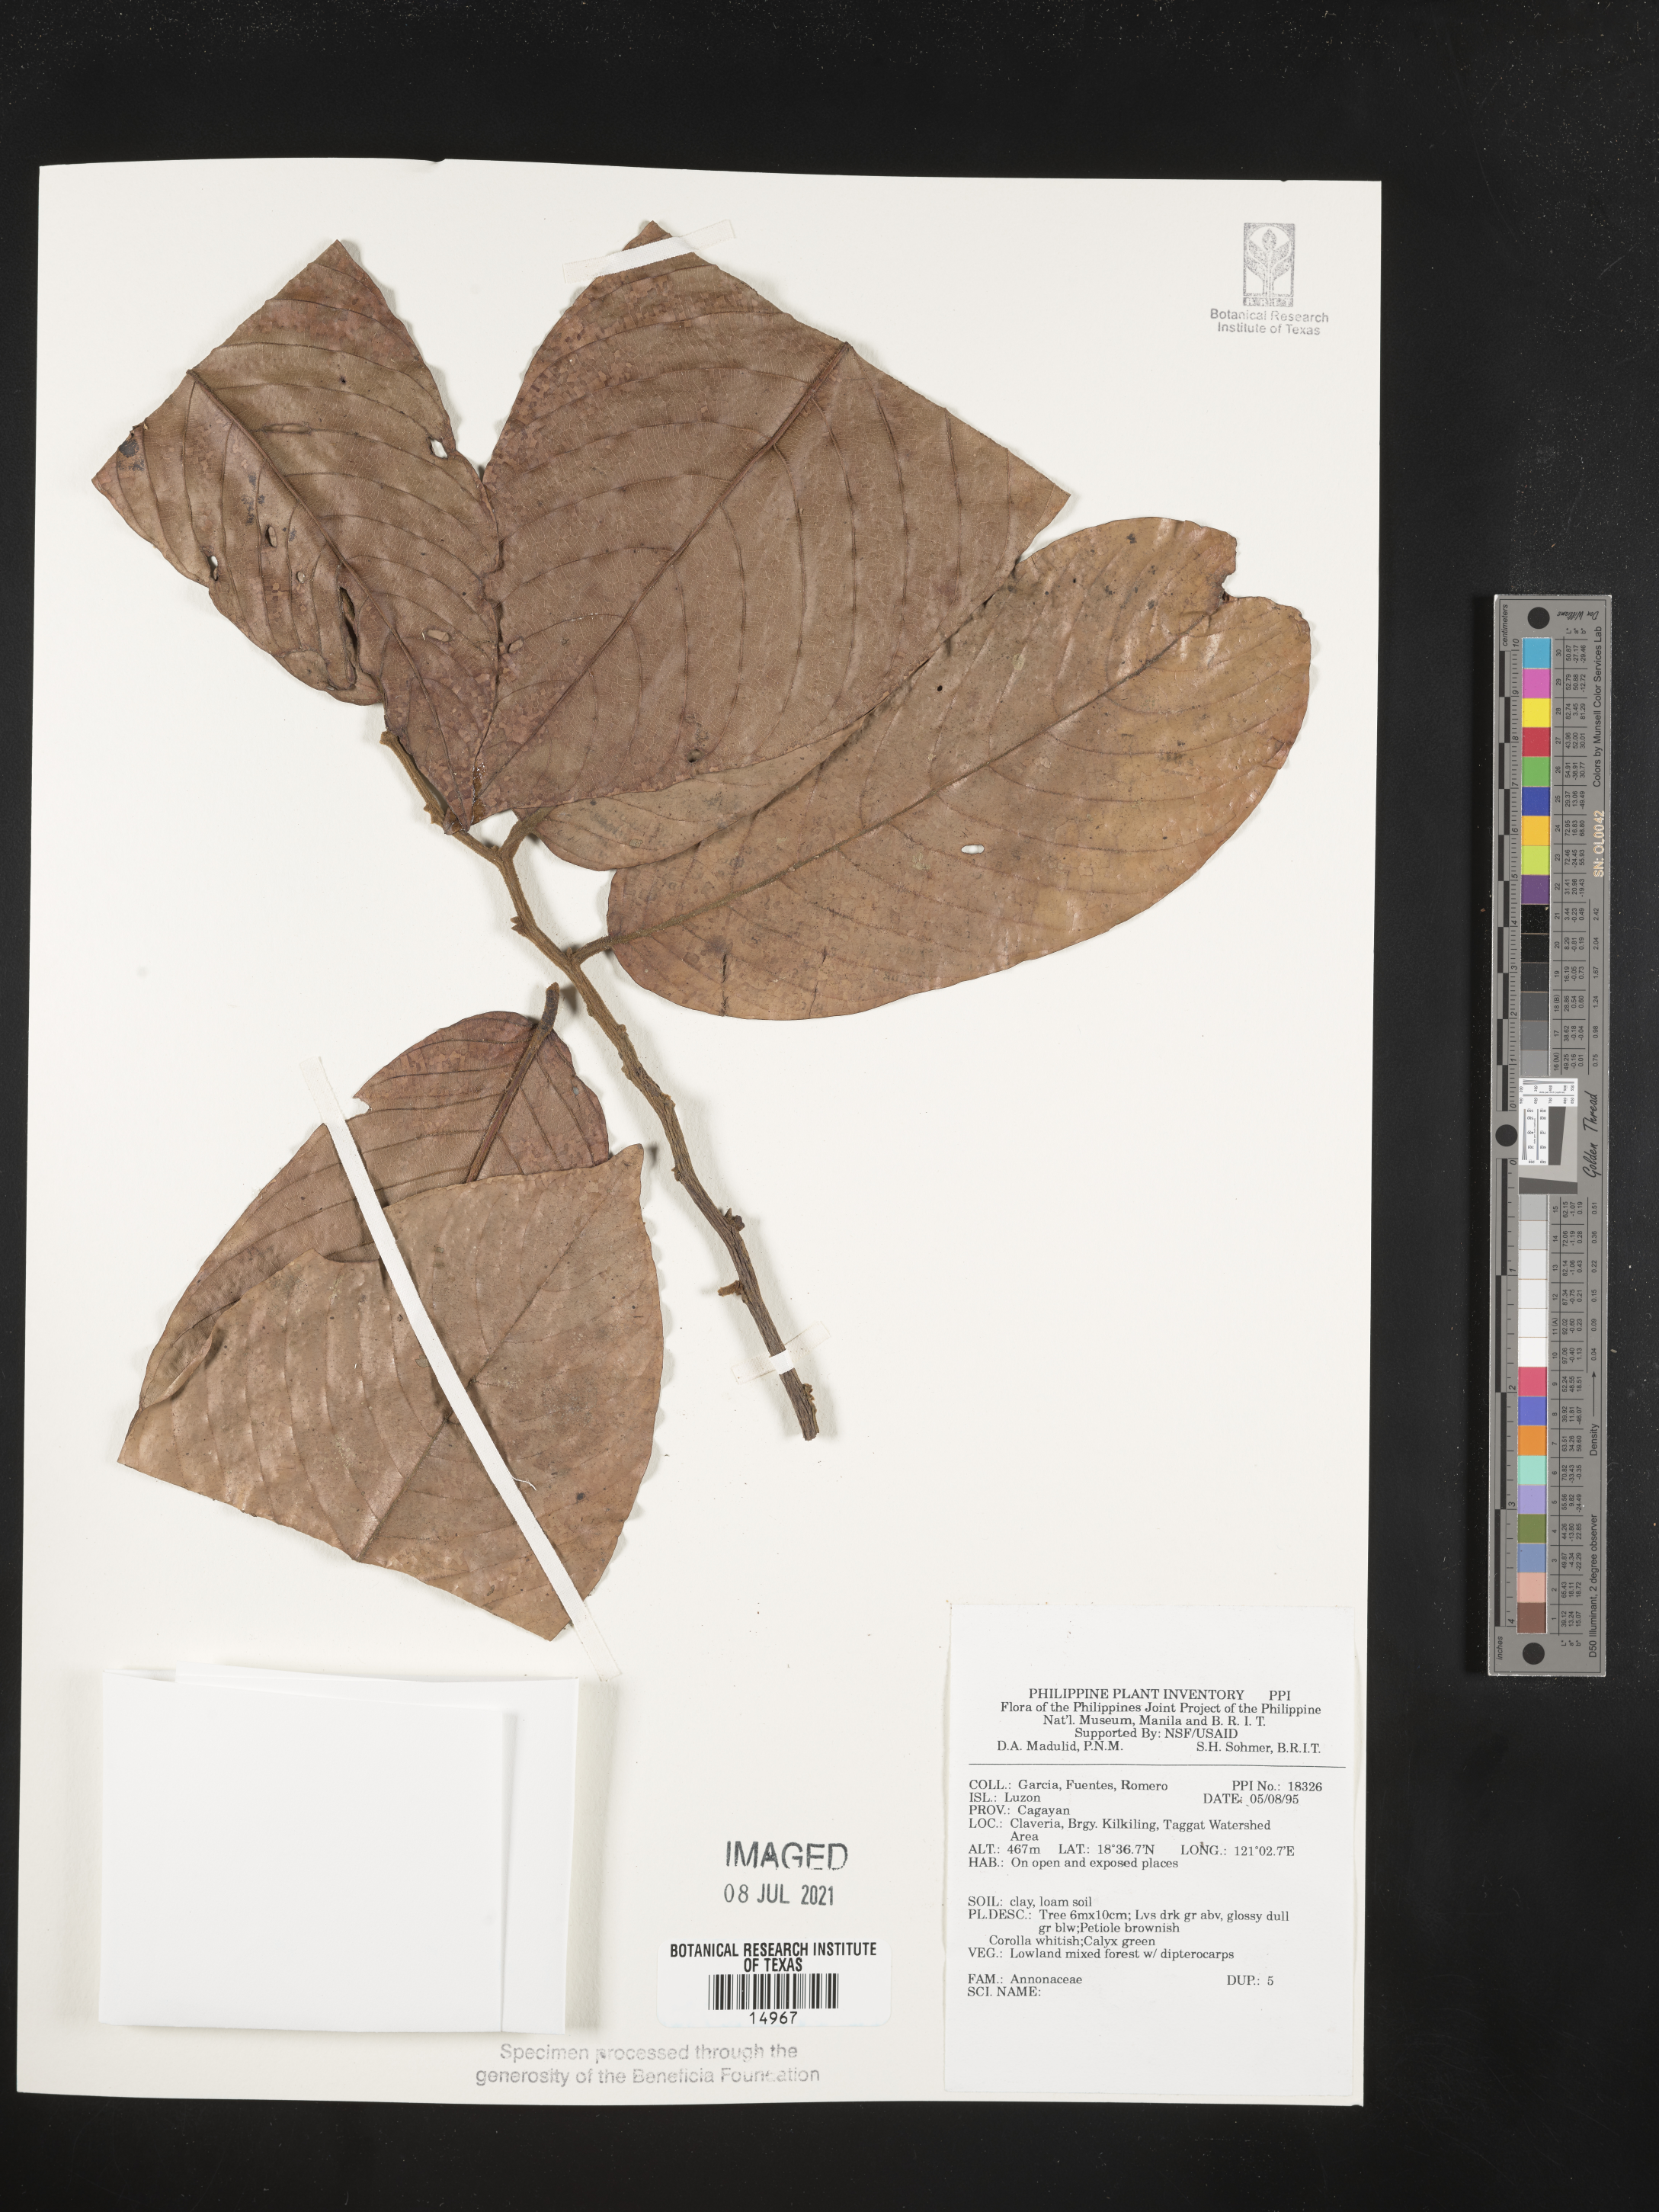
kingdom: Plantae
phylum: Tracheophyta
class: Magnoliopsida
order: Magnoliales
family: Annonaceae
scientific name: Annonaceae
